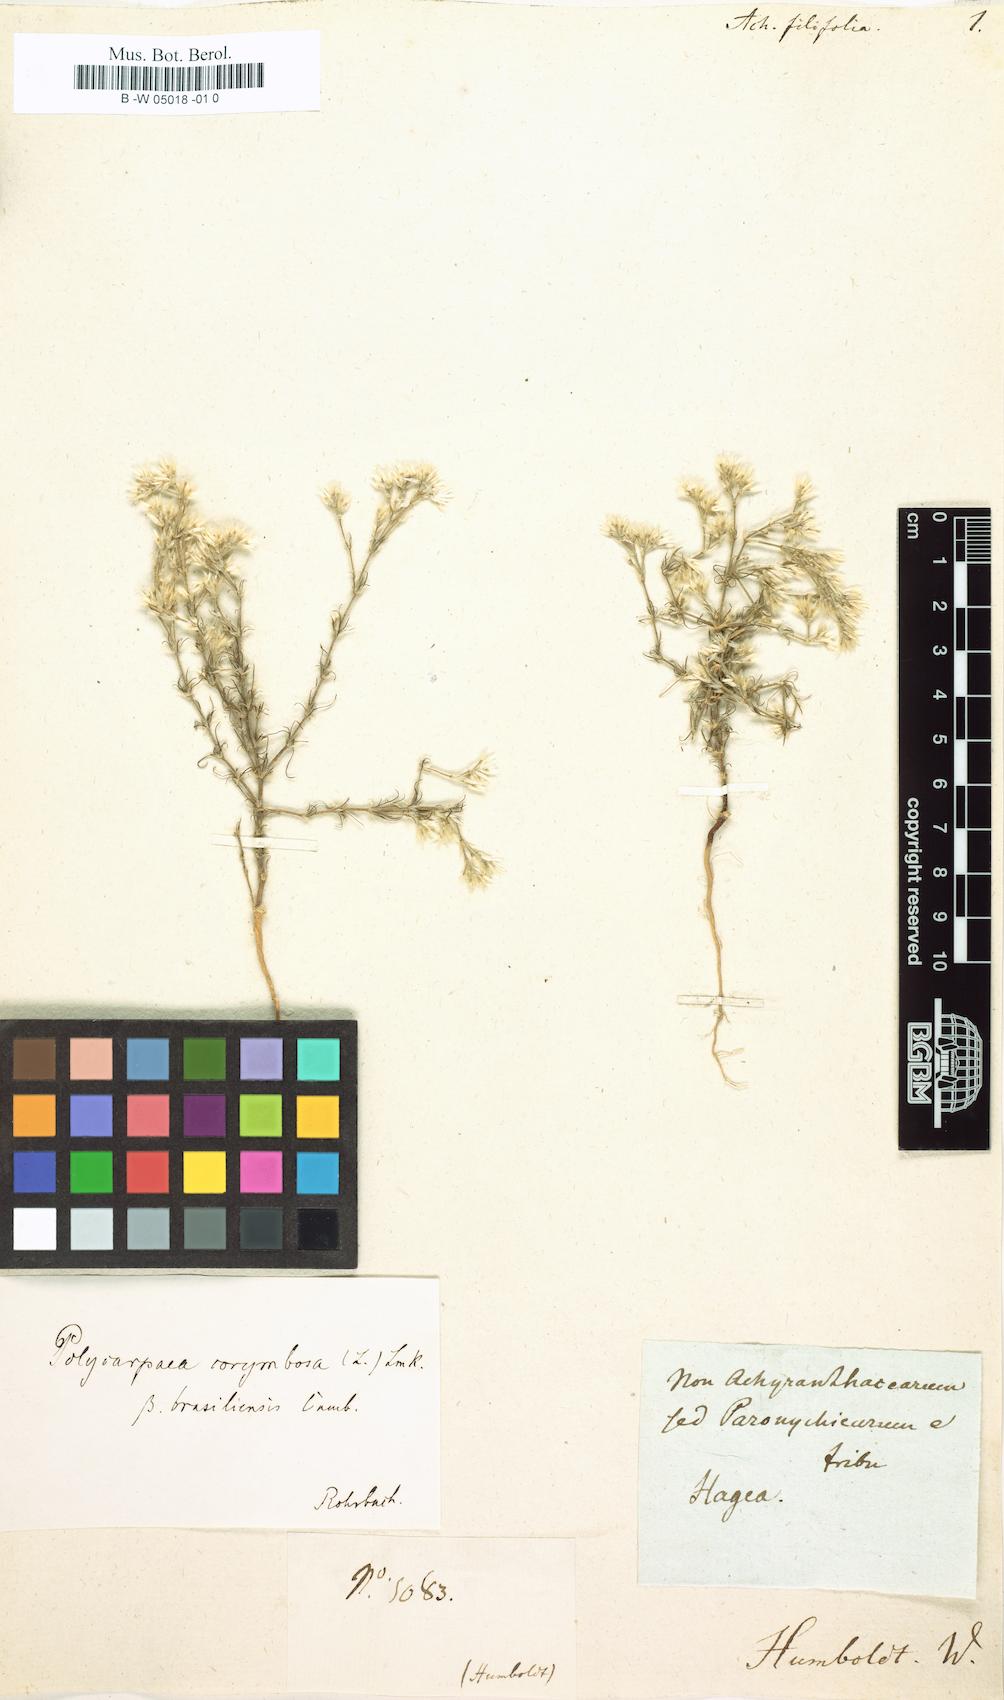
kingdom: Plantae
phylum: Tracheophyta
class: Magnoliopsida
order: Caryophyllales
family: Amaranthaceae
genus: Achyranthes
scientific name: Achyranthes filifolia
